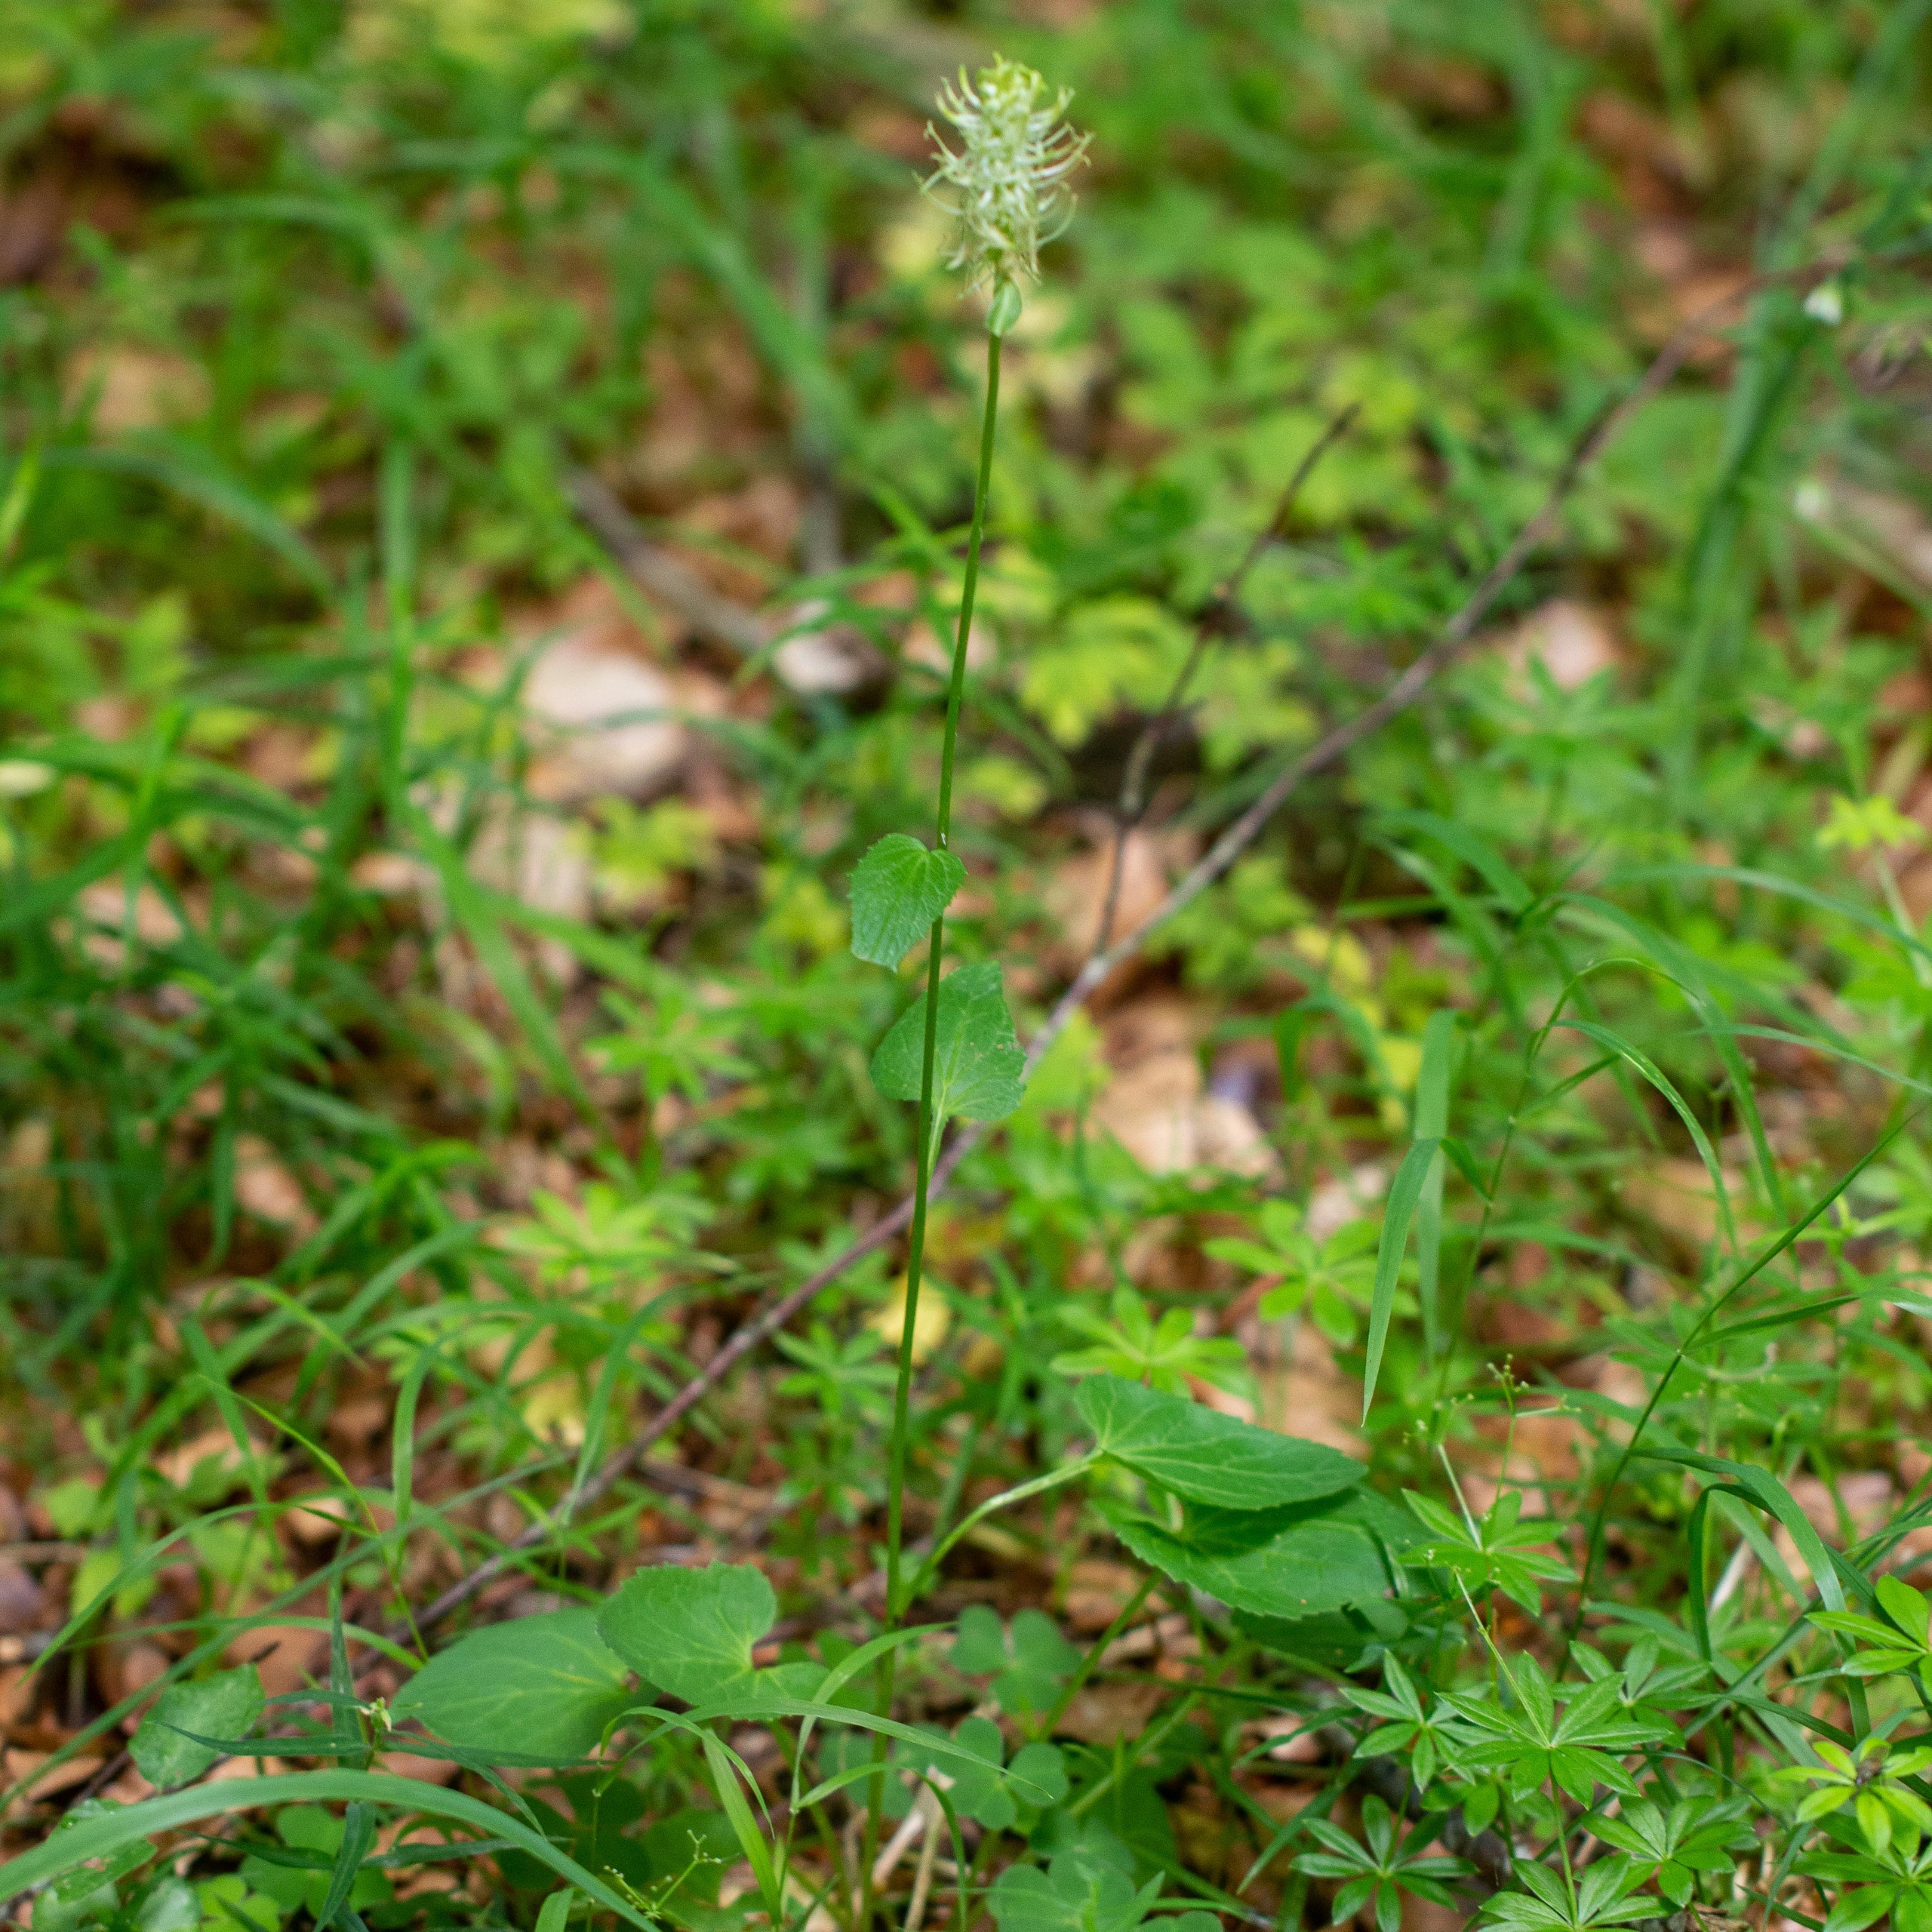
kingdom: Plantae
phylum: Tracheophyta
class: Magnoliopsida
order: Asterales
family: Campanulaceae
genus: Phyteuma
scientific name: Phyteuma spicatum
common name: Aks-rapunsel
